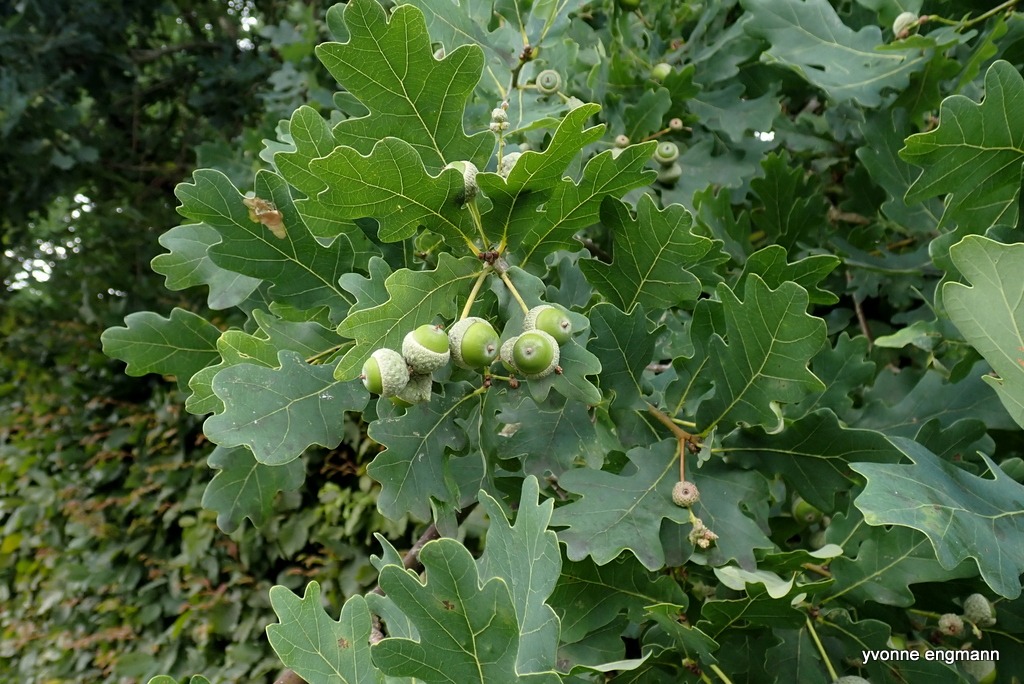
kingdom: Plantae
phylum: Tracheophyta
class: Magnoliopsida
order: Fagales
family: Fagaceae
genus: Quercus
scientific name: Quercus robur
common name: Stilk-eg/almindelig eg
